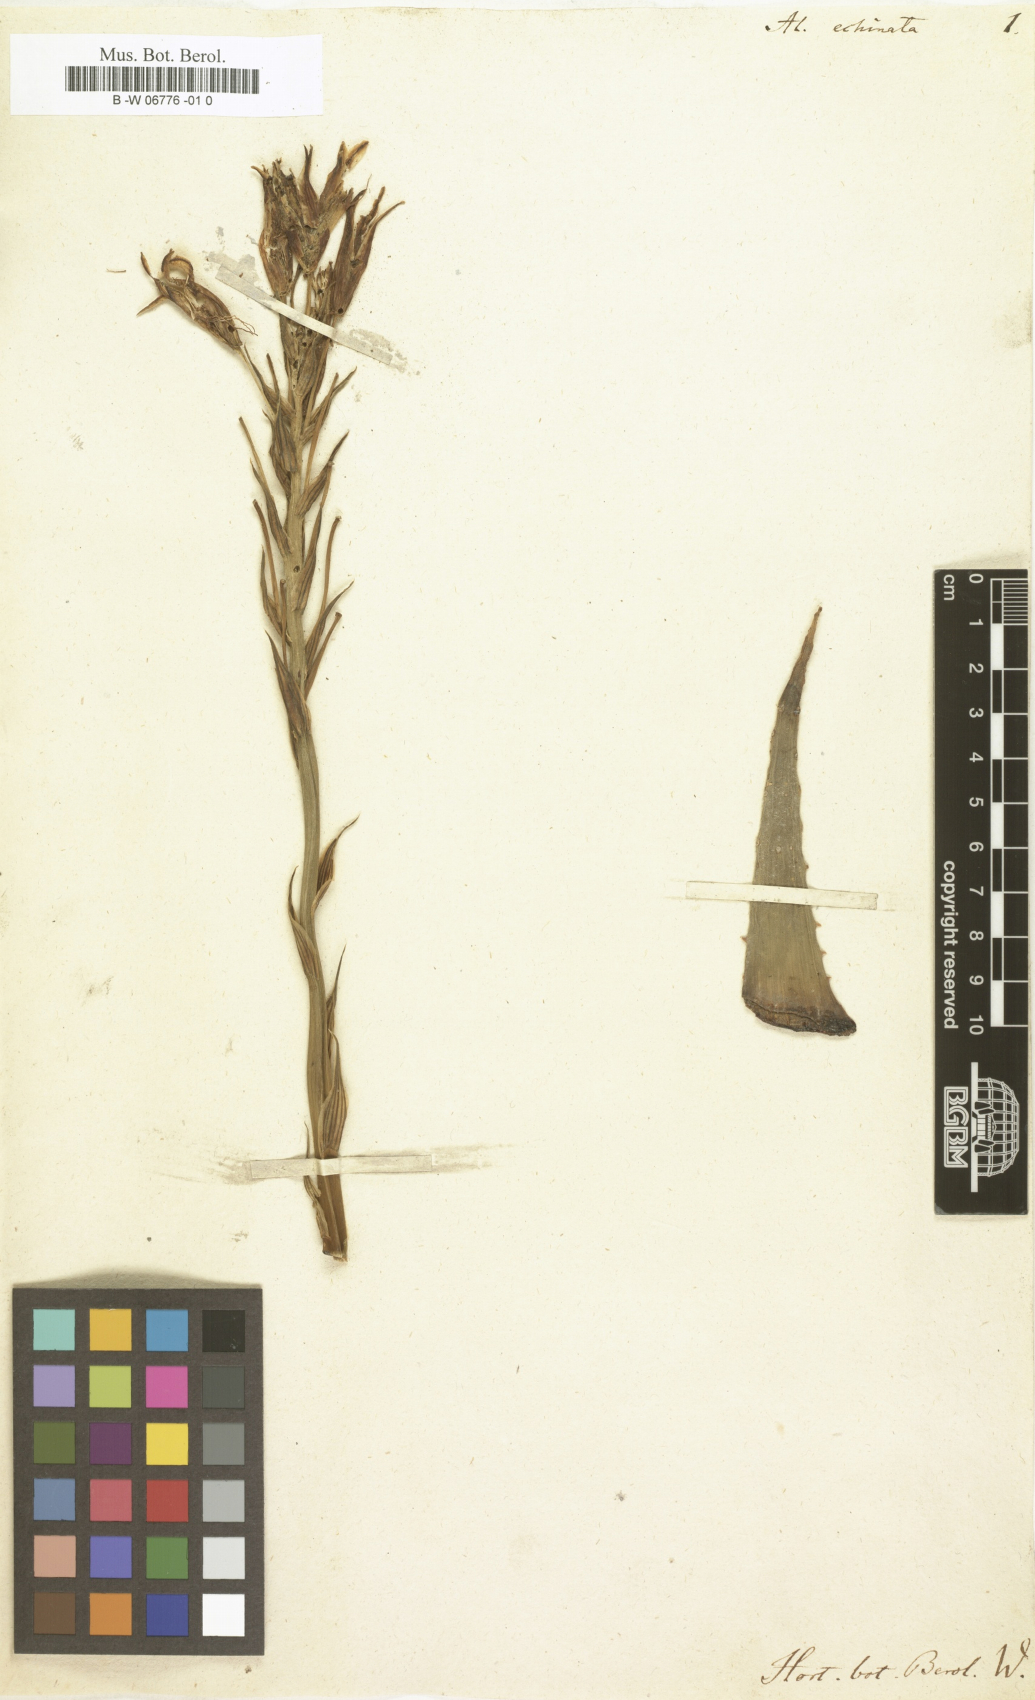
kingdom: Plantae
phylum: Tracheophyta
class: Liliopsida
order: Asparagales
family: Asphodelaceae
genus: Aloe
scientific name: Aloe humilis
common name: Dwarf hedgehog aloe
